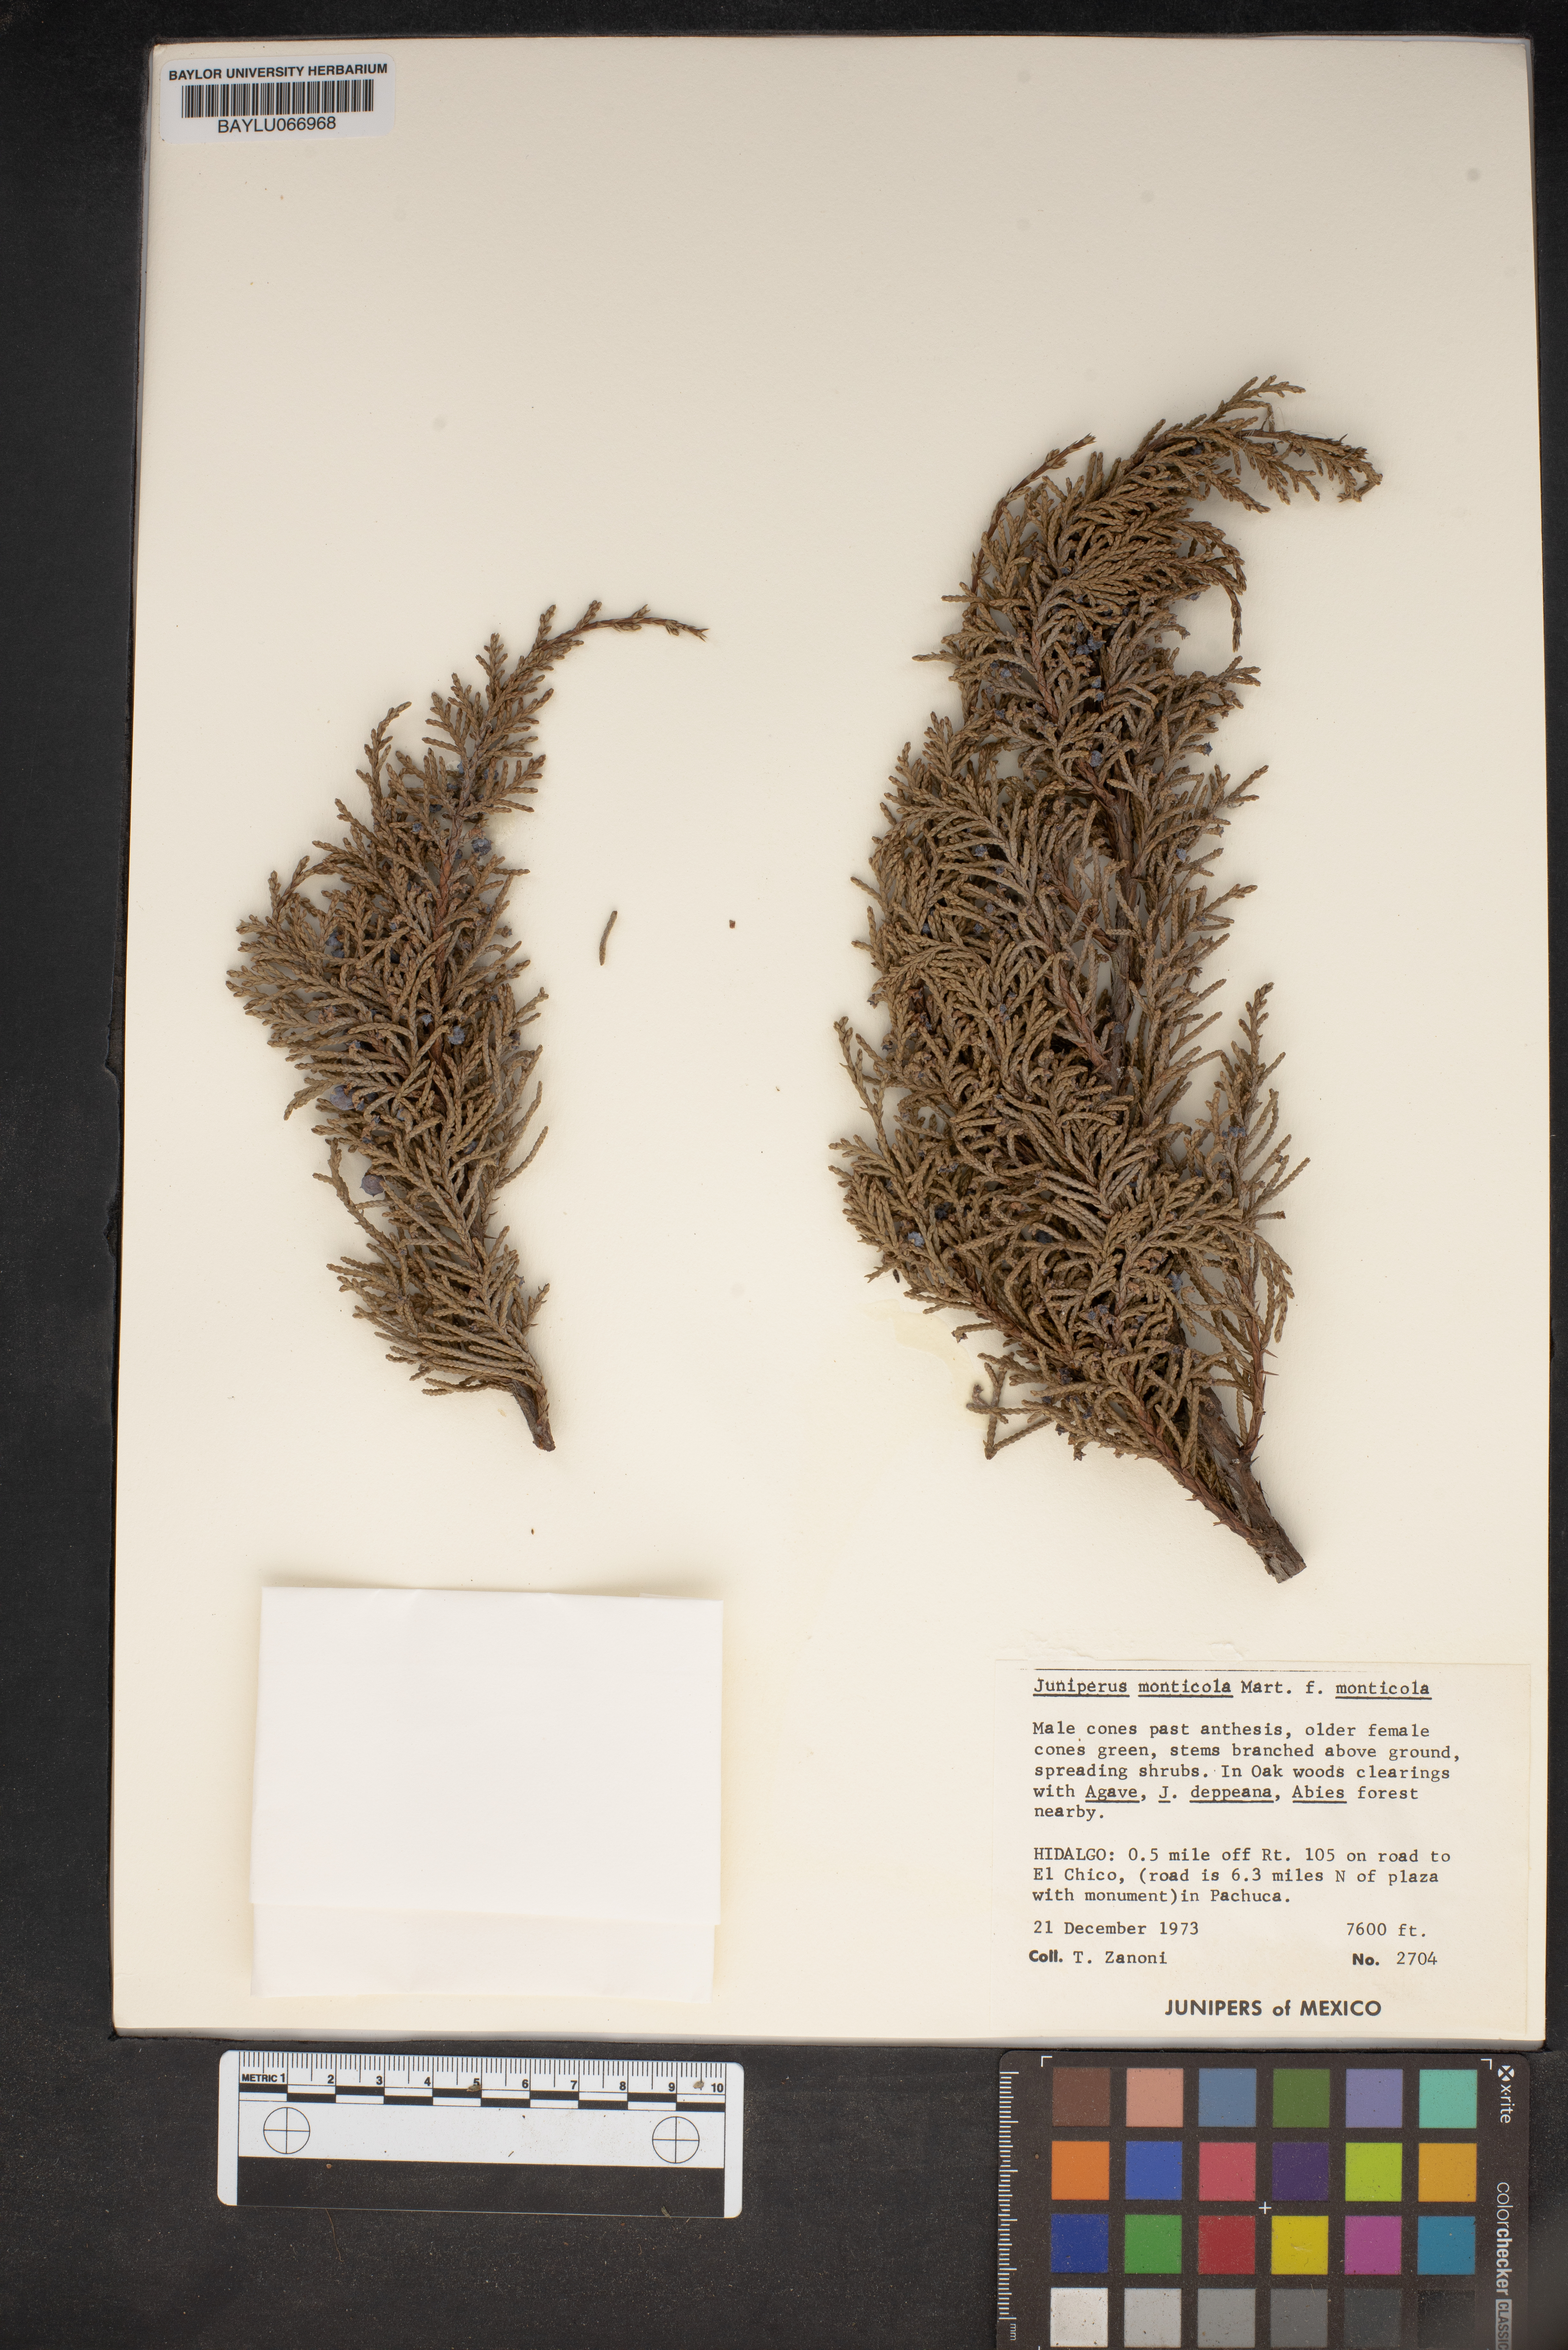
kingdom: Plantae
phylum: Tracheophyta
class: Pinopsida
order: Pinales
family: Cupressaceae
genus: Juniperus
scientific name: Juniperus monticola
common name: Mexican juniper
